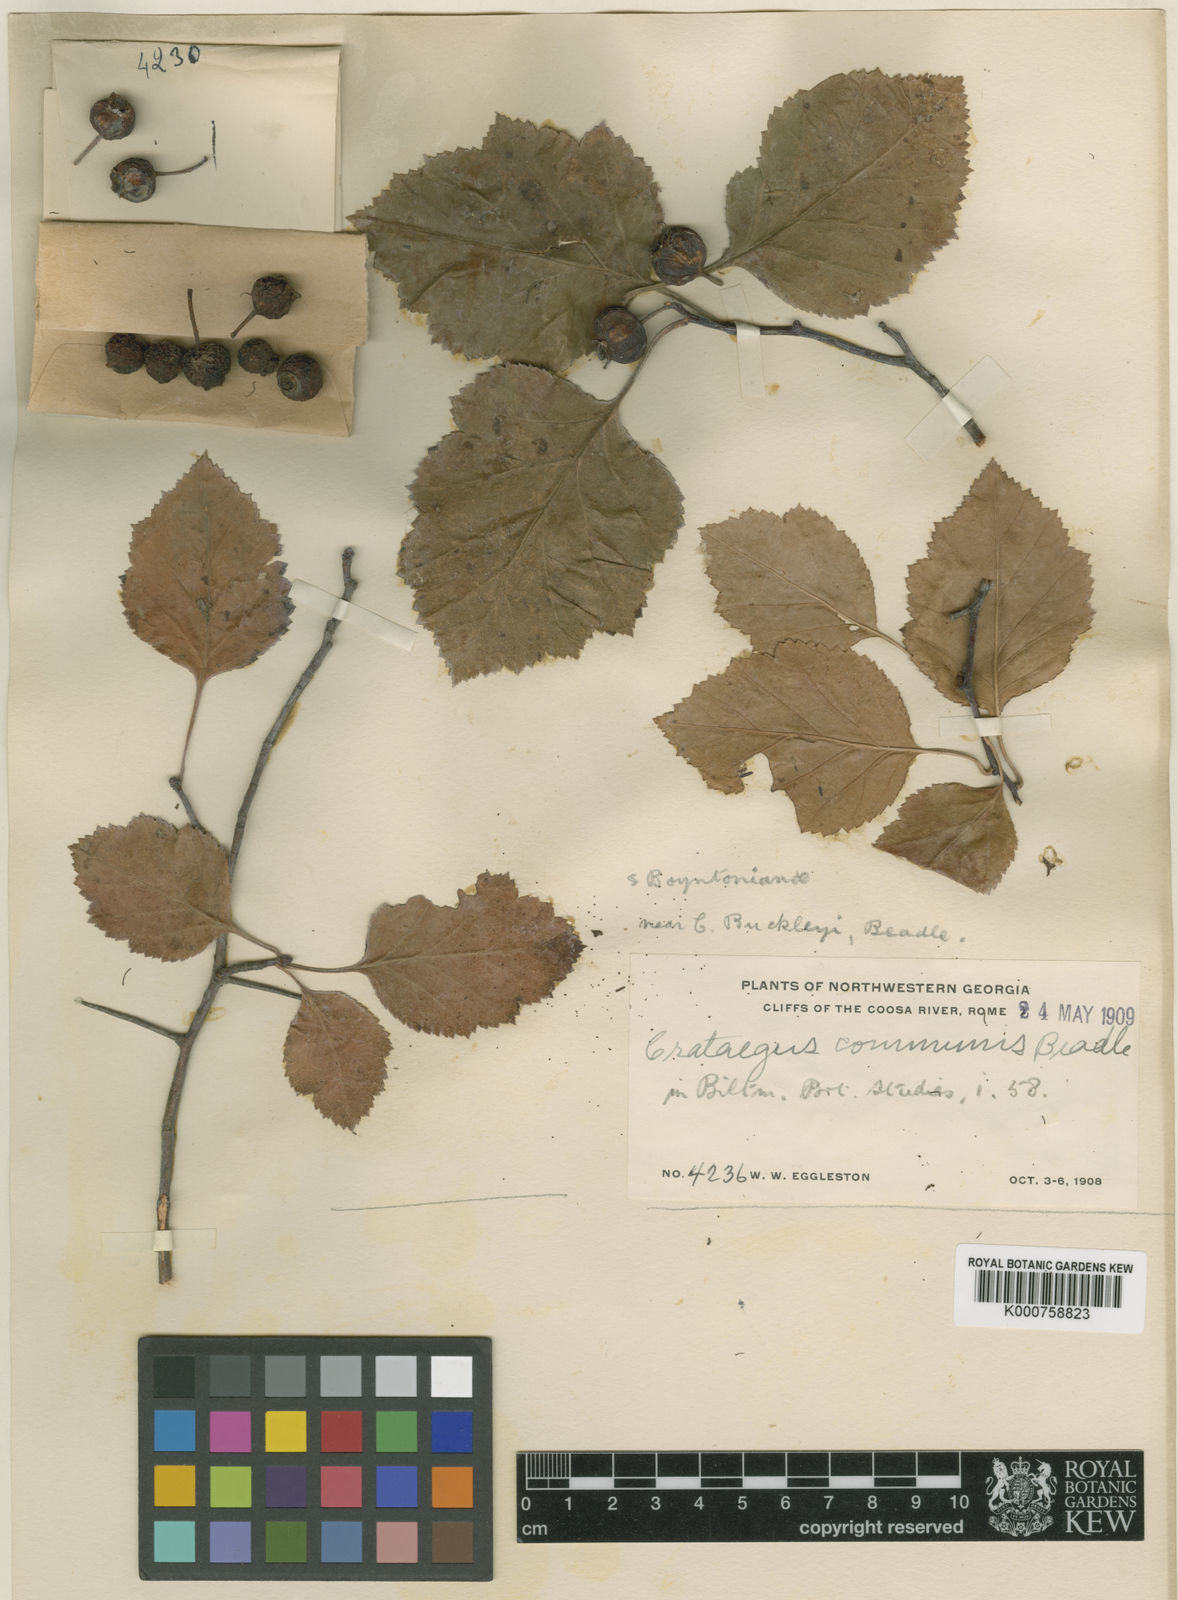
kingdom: Plantae
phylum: Tracheophyta
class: Magnoliopsida
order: Rosales
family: Rosaceae
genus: Crataegus
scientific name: Crataegus intricata
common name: Biltmore hawthorn
